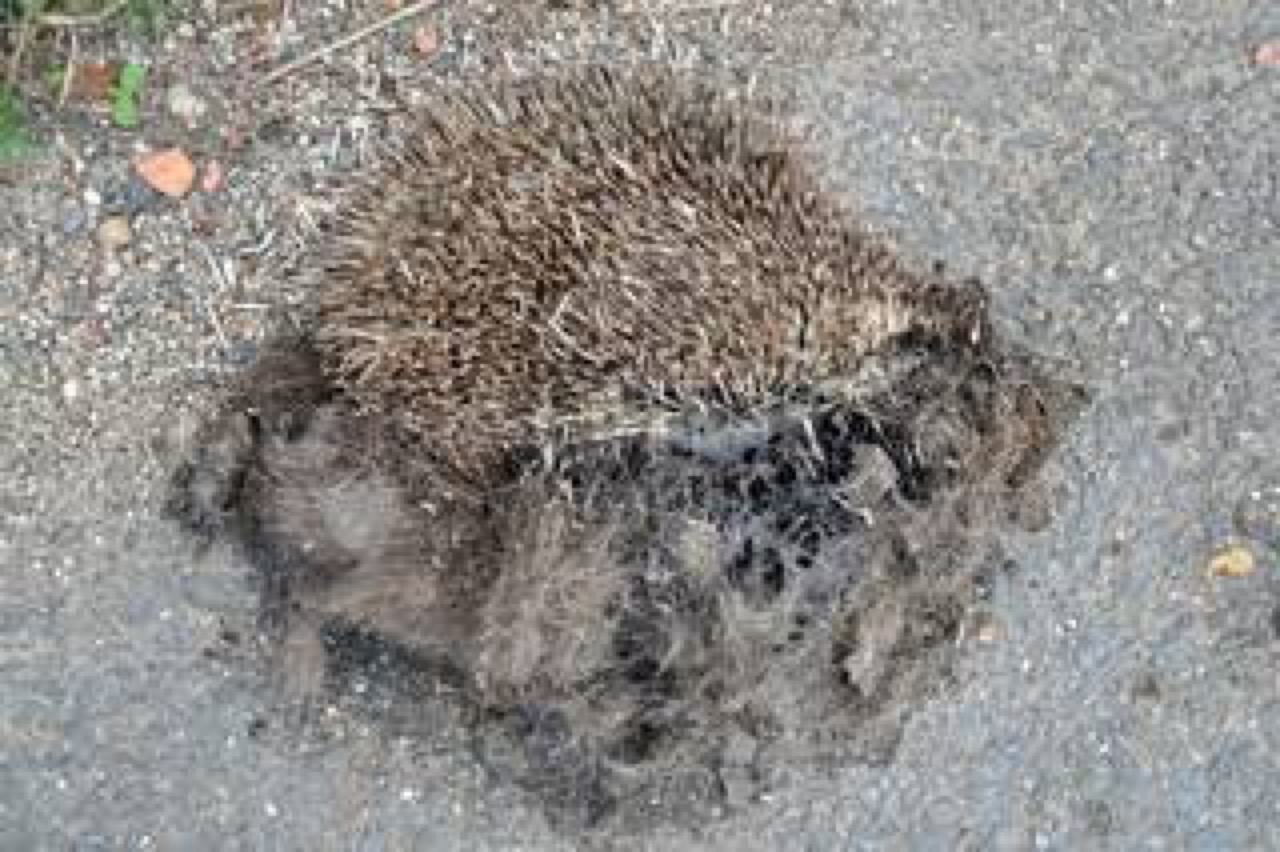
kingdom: Animalia
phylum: Chordata
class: Mammalia
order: Erinaceomorpha
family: Erinaceidae
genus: Erinaceus
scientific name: Erinaceus
